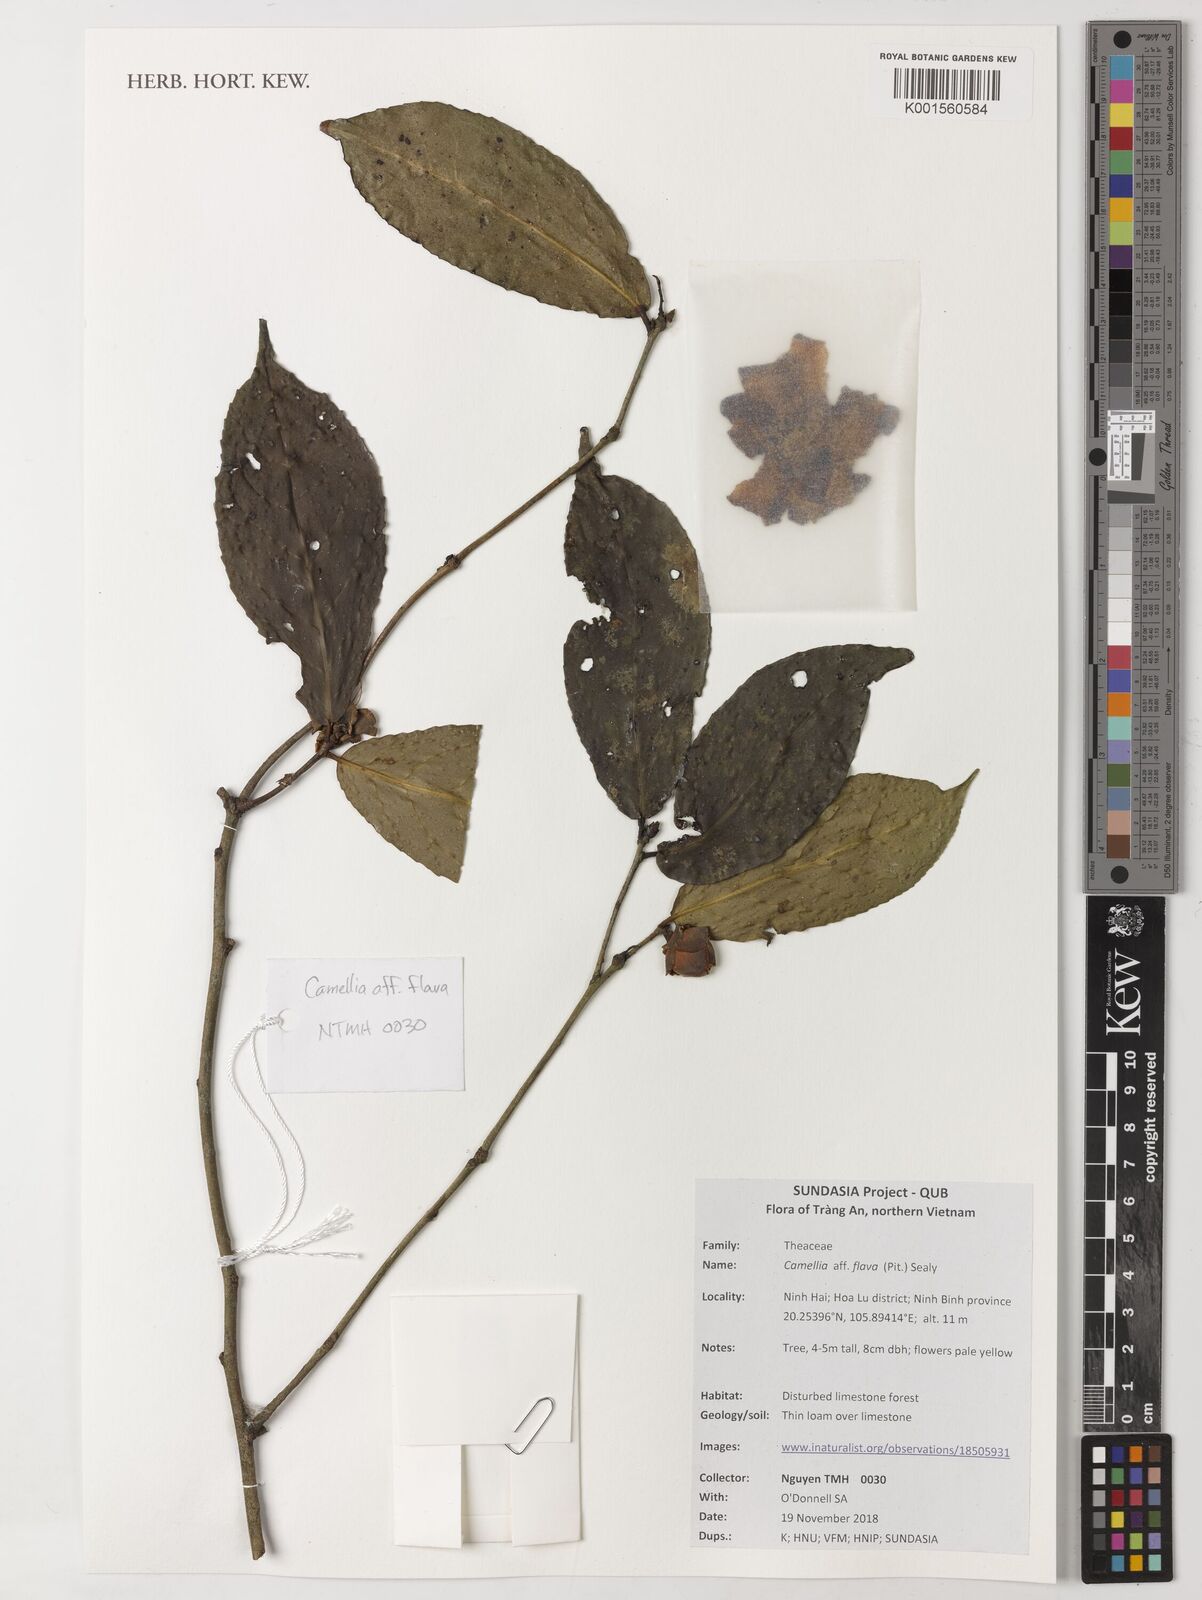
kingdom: Plantae
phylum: Tracheophyta
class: Magnoliopsida
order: Ericales
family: Theaceae
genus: Camellia
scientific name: Camellia flava
